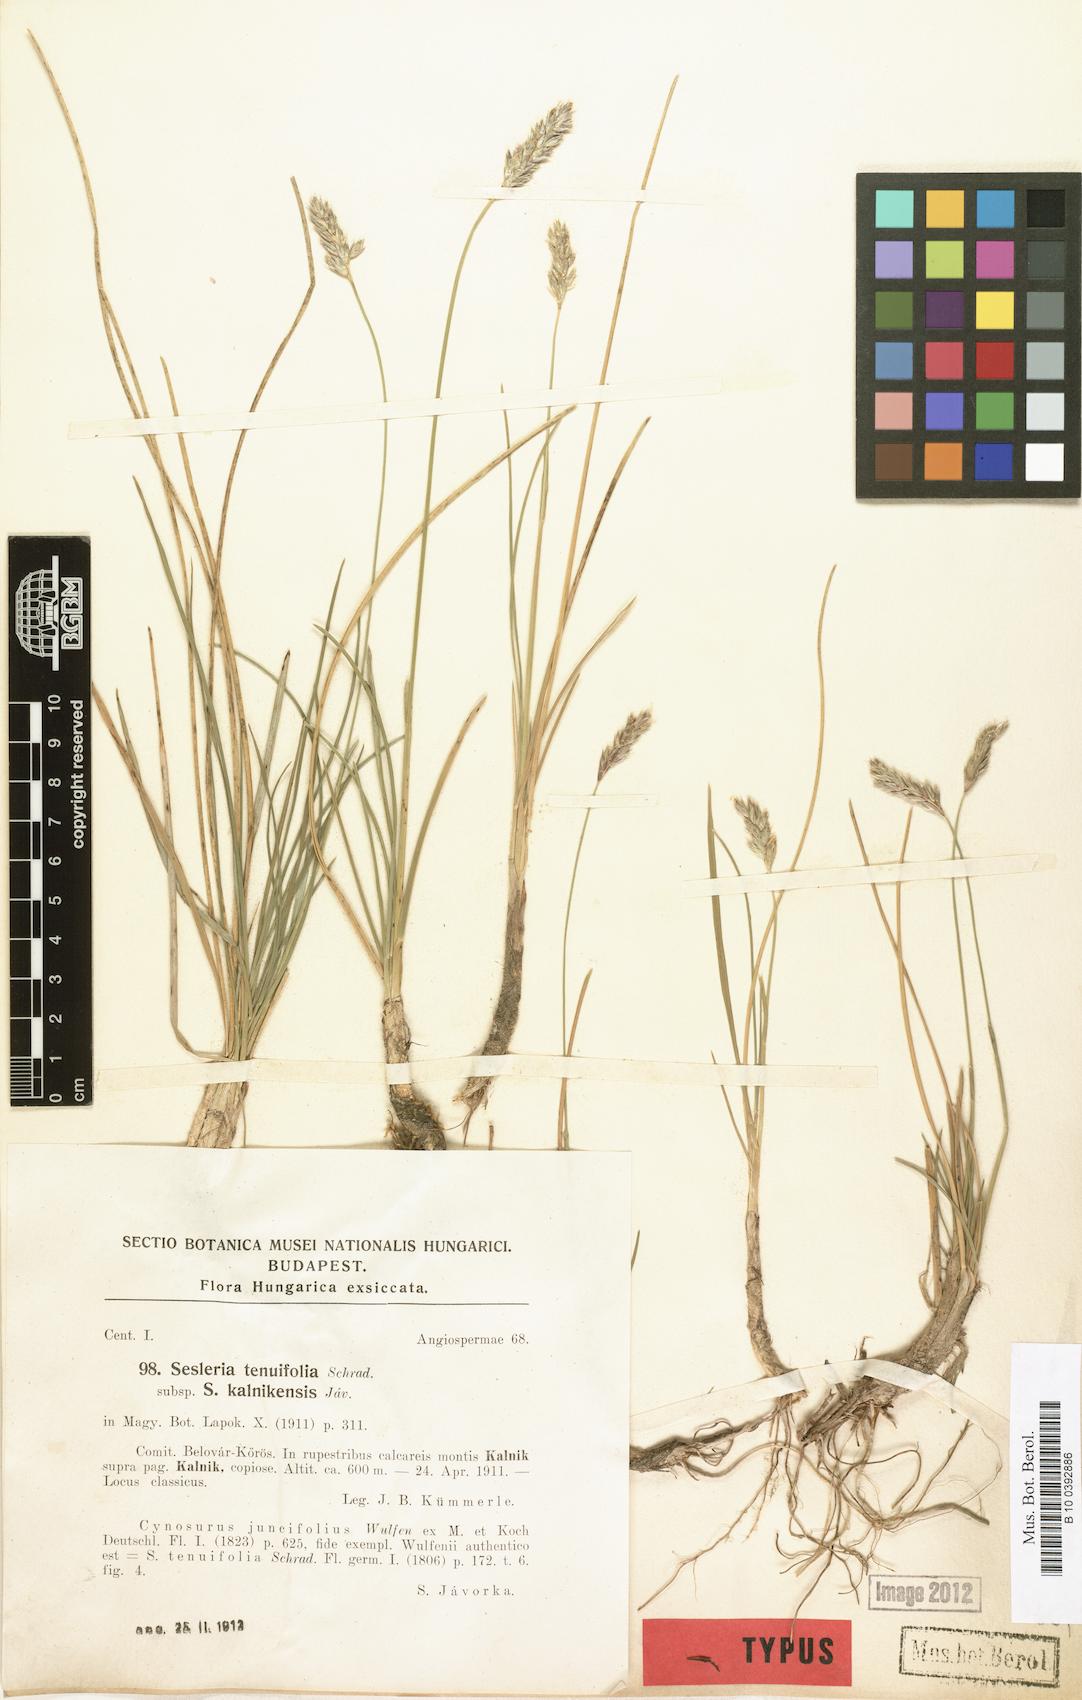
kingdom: Plantae
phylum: Tracheophyta
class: Liliopsida
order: Poales
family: Poaceae
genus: Sesleria
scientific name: Sesleria kalnikensis
